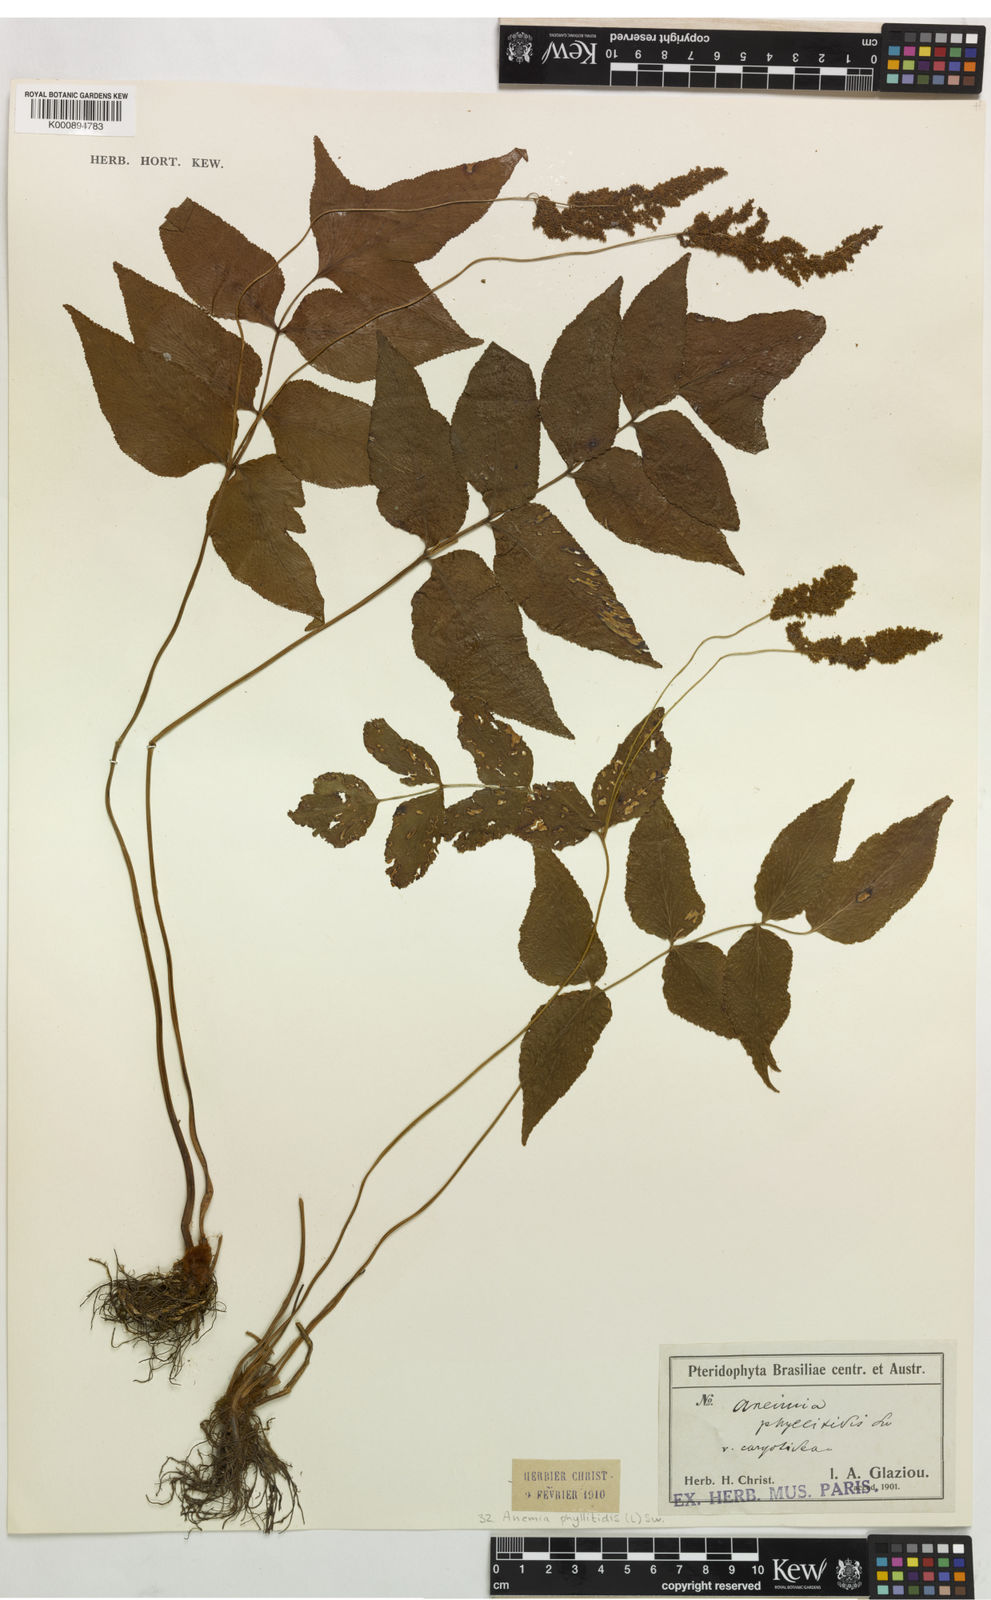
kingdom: Plantae
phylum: Tracheophyta
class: Polypodiopsida
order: Schizaeales
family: Anemiaceae
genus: Anemia
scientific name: Anemia phyllitidis
